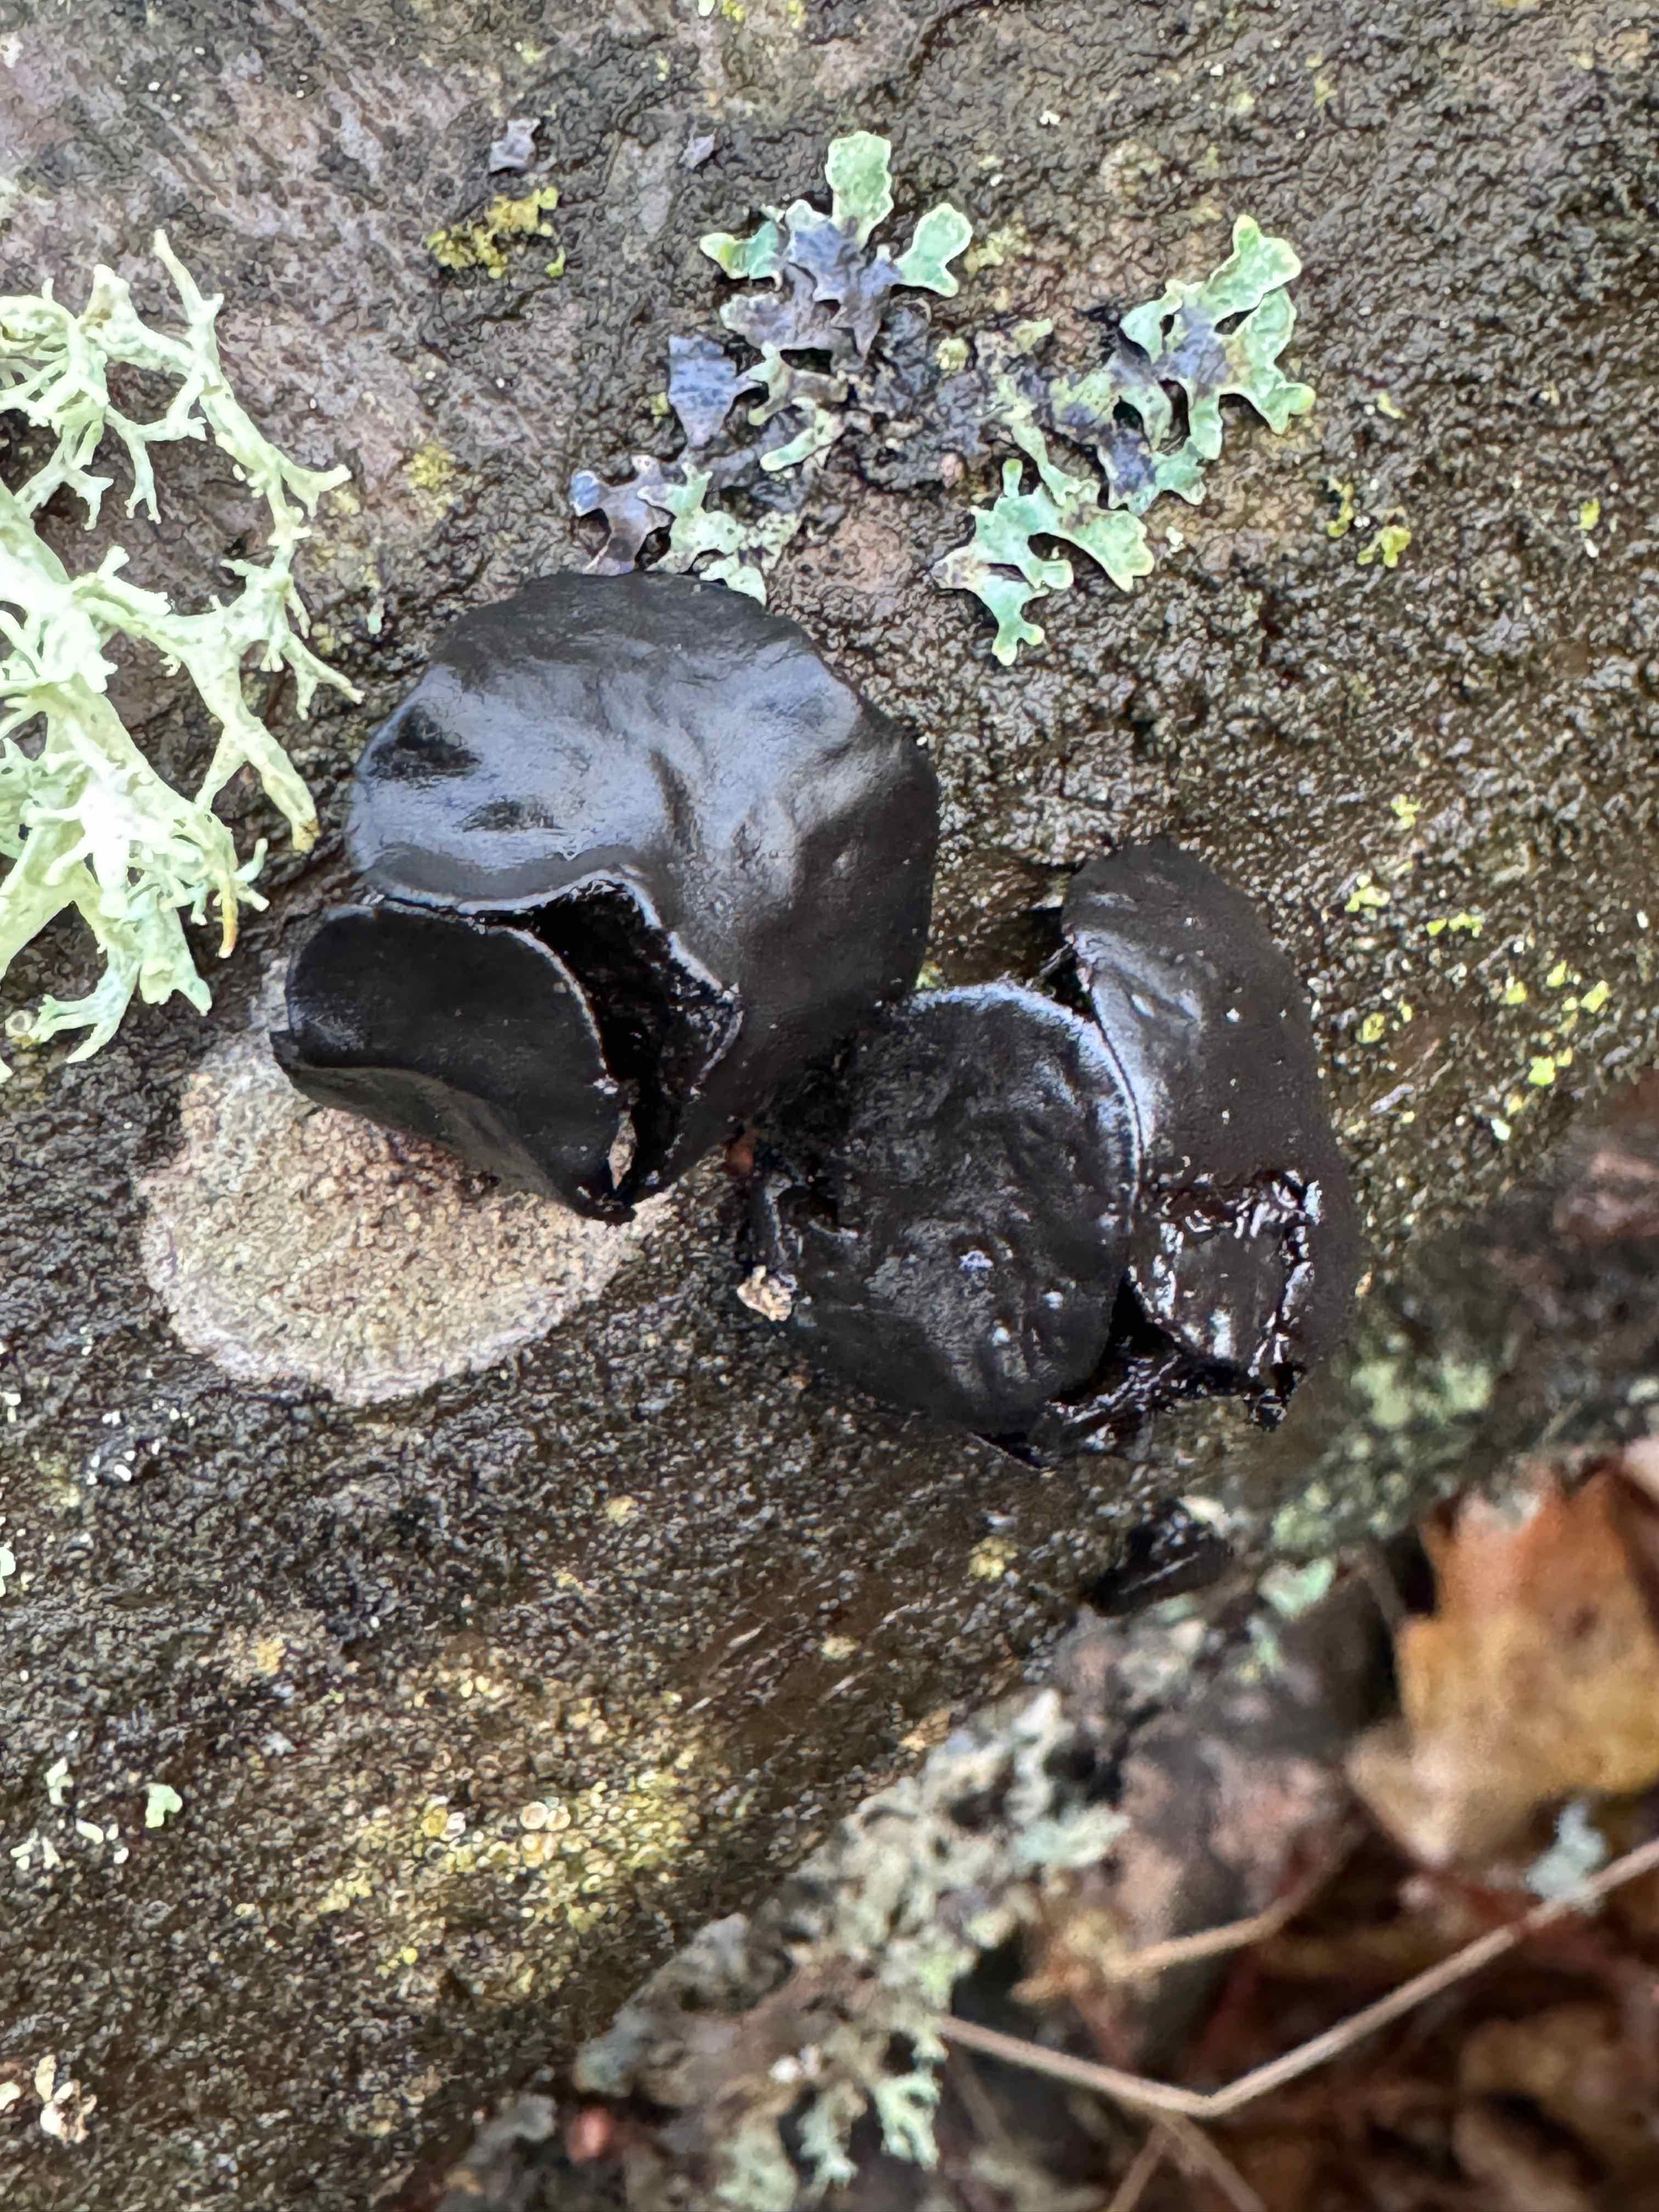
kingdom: Fungi
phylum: Ascomycota
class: Leotiomycetes
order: Phacidiales
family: Phacidiaceae
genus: Bulgaria
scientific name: Bulgaria inquinans
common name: afsmittende topsvamp
